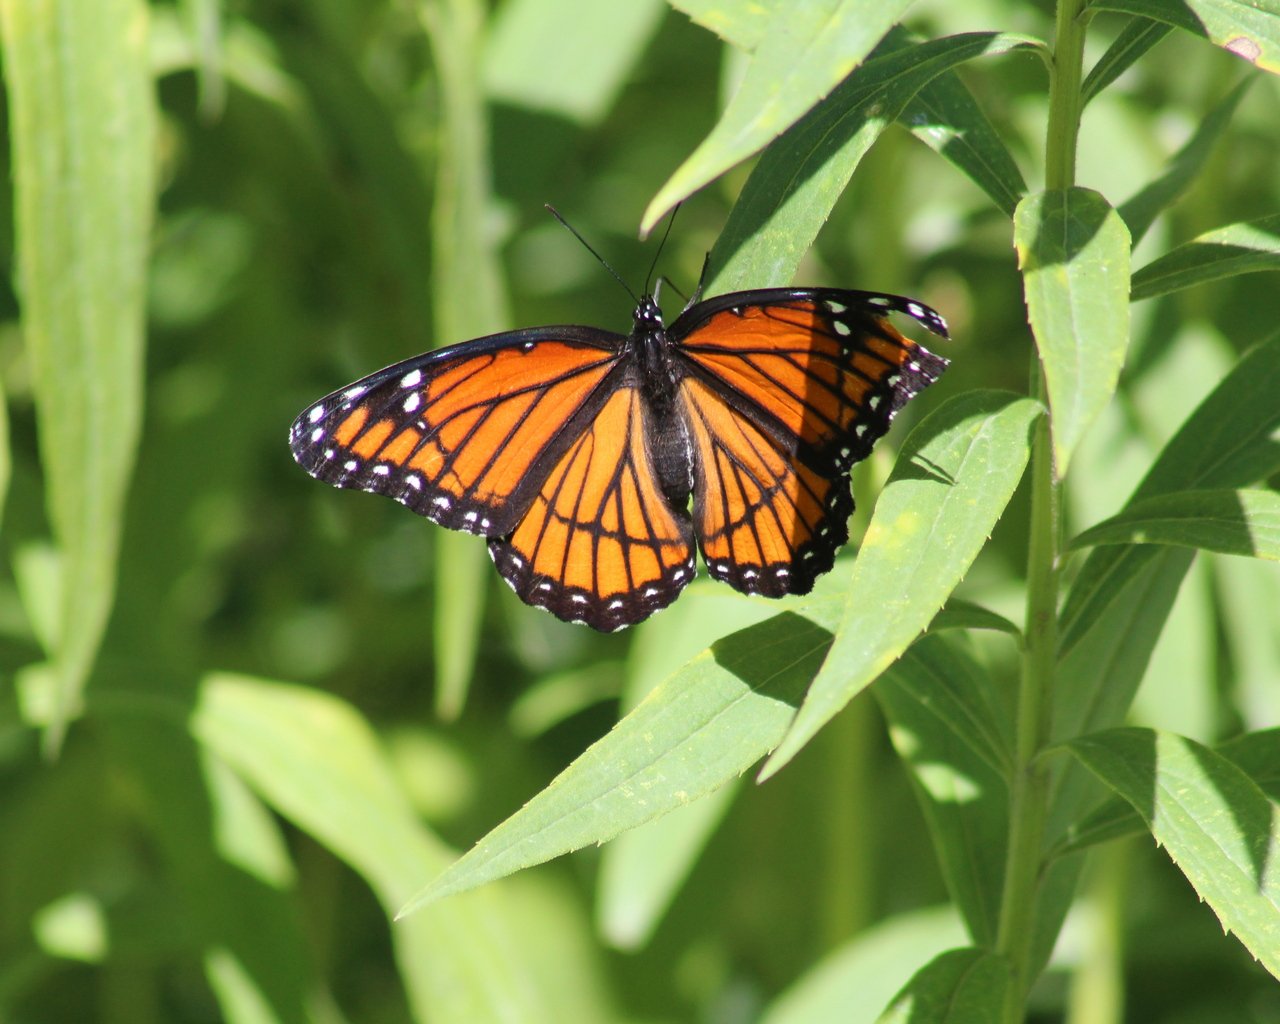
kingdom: Animalia
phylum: Arthropoda
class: Insecta
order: Lepidoptera
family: Nymphalidae
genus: Limenitis
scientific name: Limenitis archippus
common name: Viceroy
